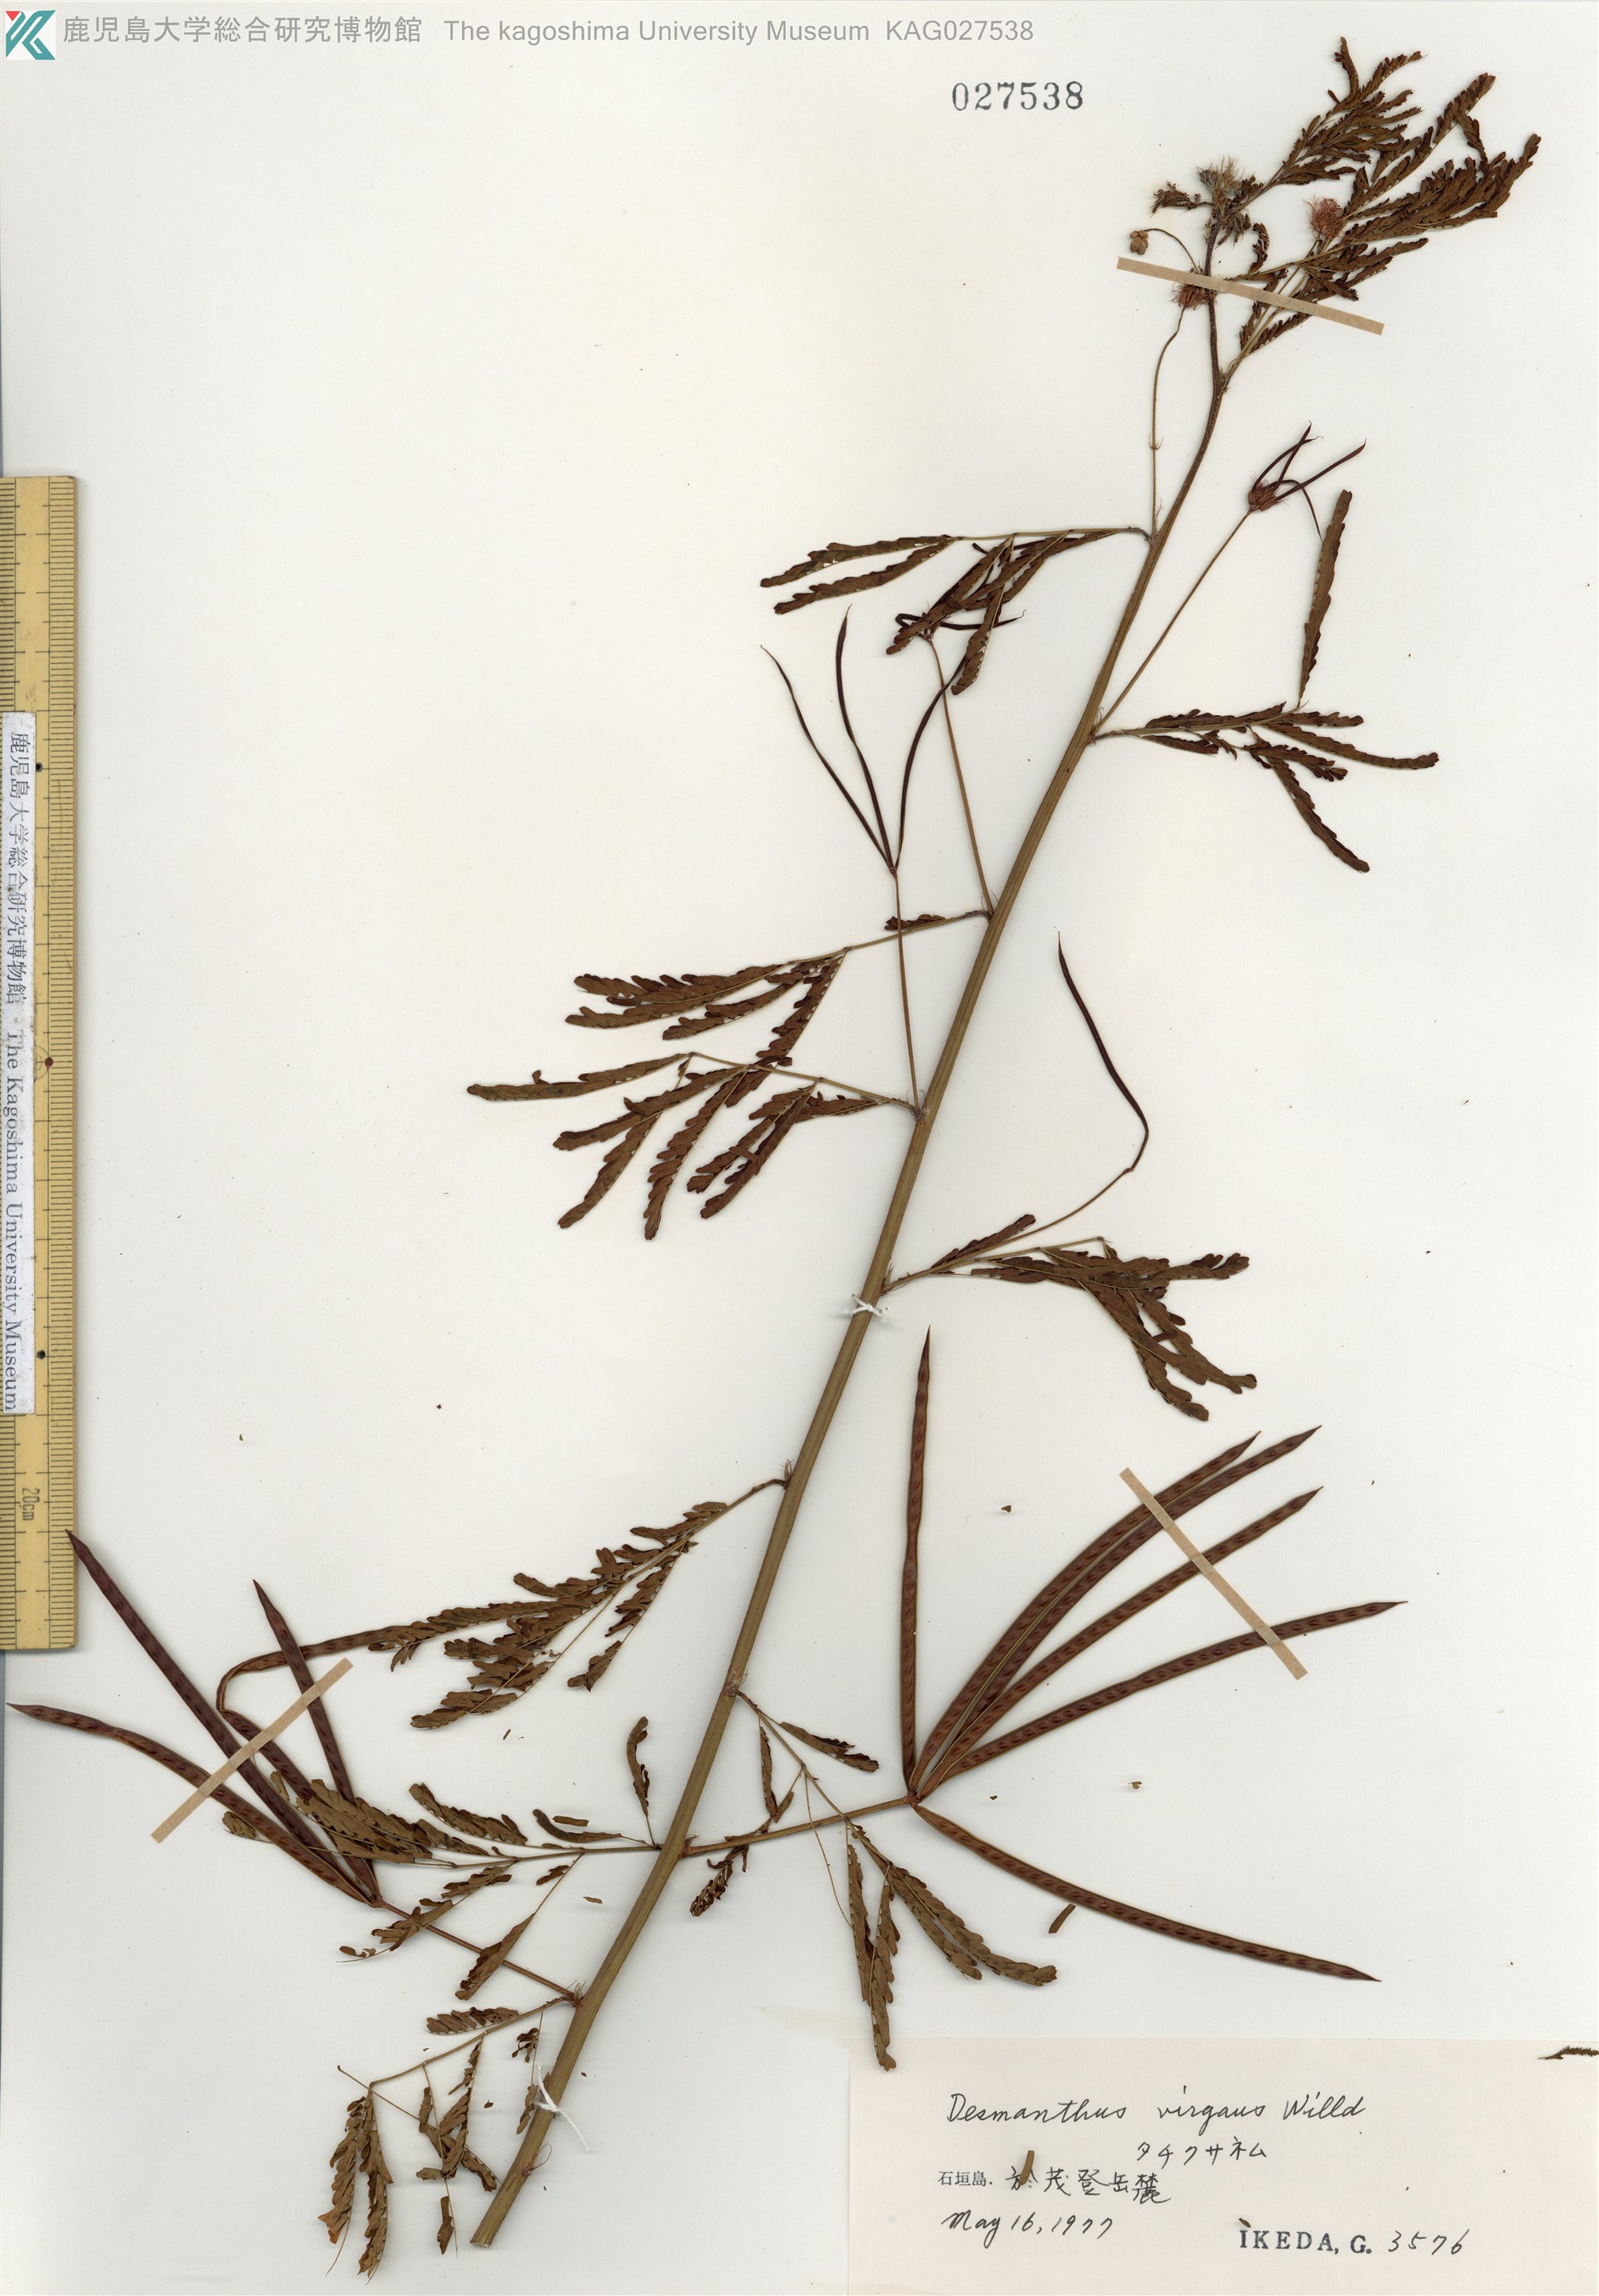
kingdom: Plantae
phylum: Tracheophyta
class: Magnoliopsida
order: Fabales
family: Fabaceae
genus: Desmanthus
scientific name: Desmanthus pernambucanus
